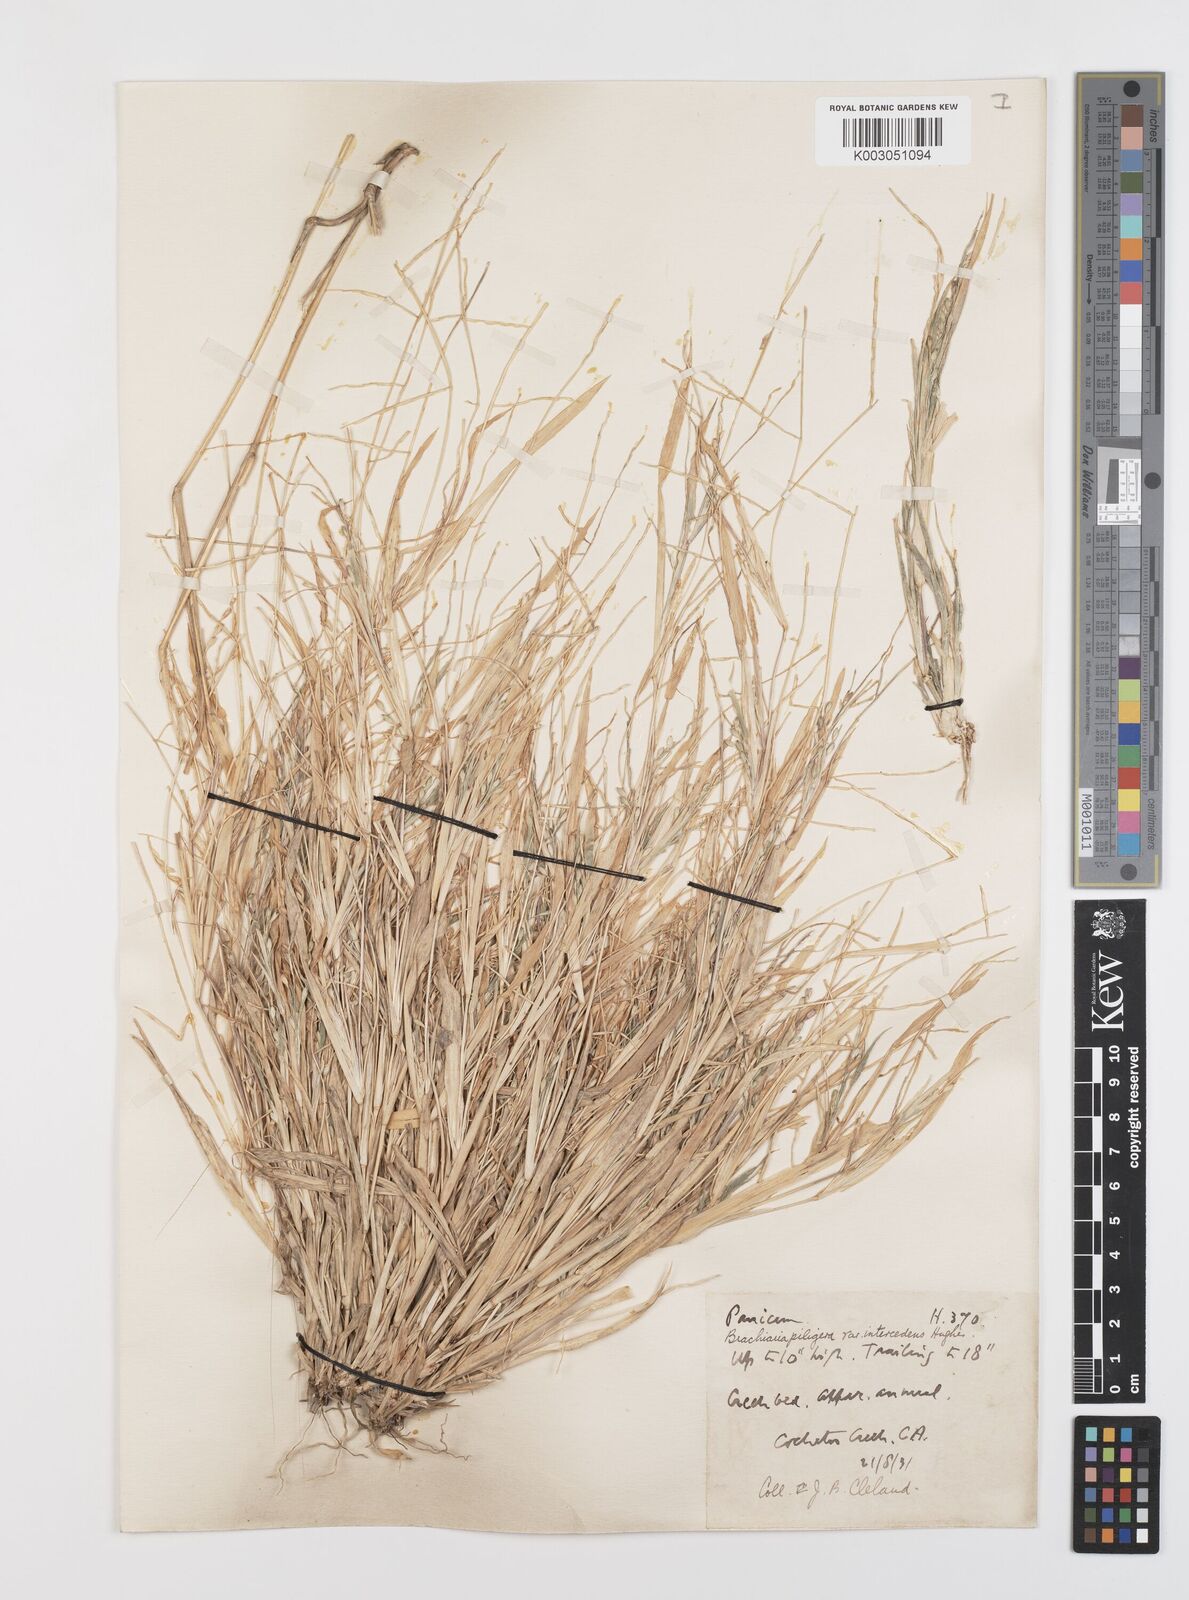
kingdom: Plantae
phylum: Tracheophyta
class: Liliopsida
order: Poales
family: Poaceae
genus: Urochloa
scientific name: Urochloa piligera
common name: Wattle signalgrass
